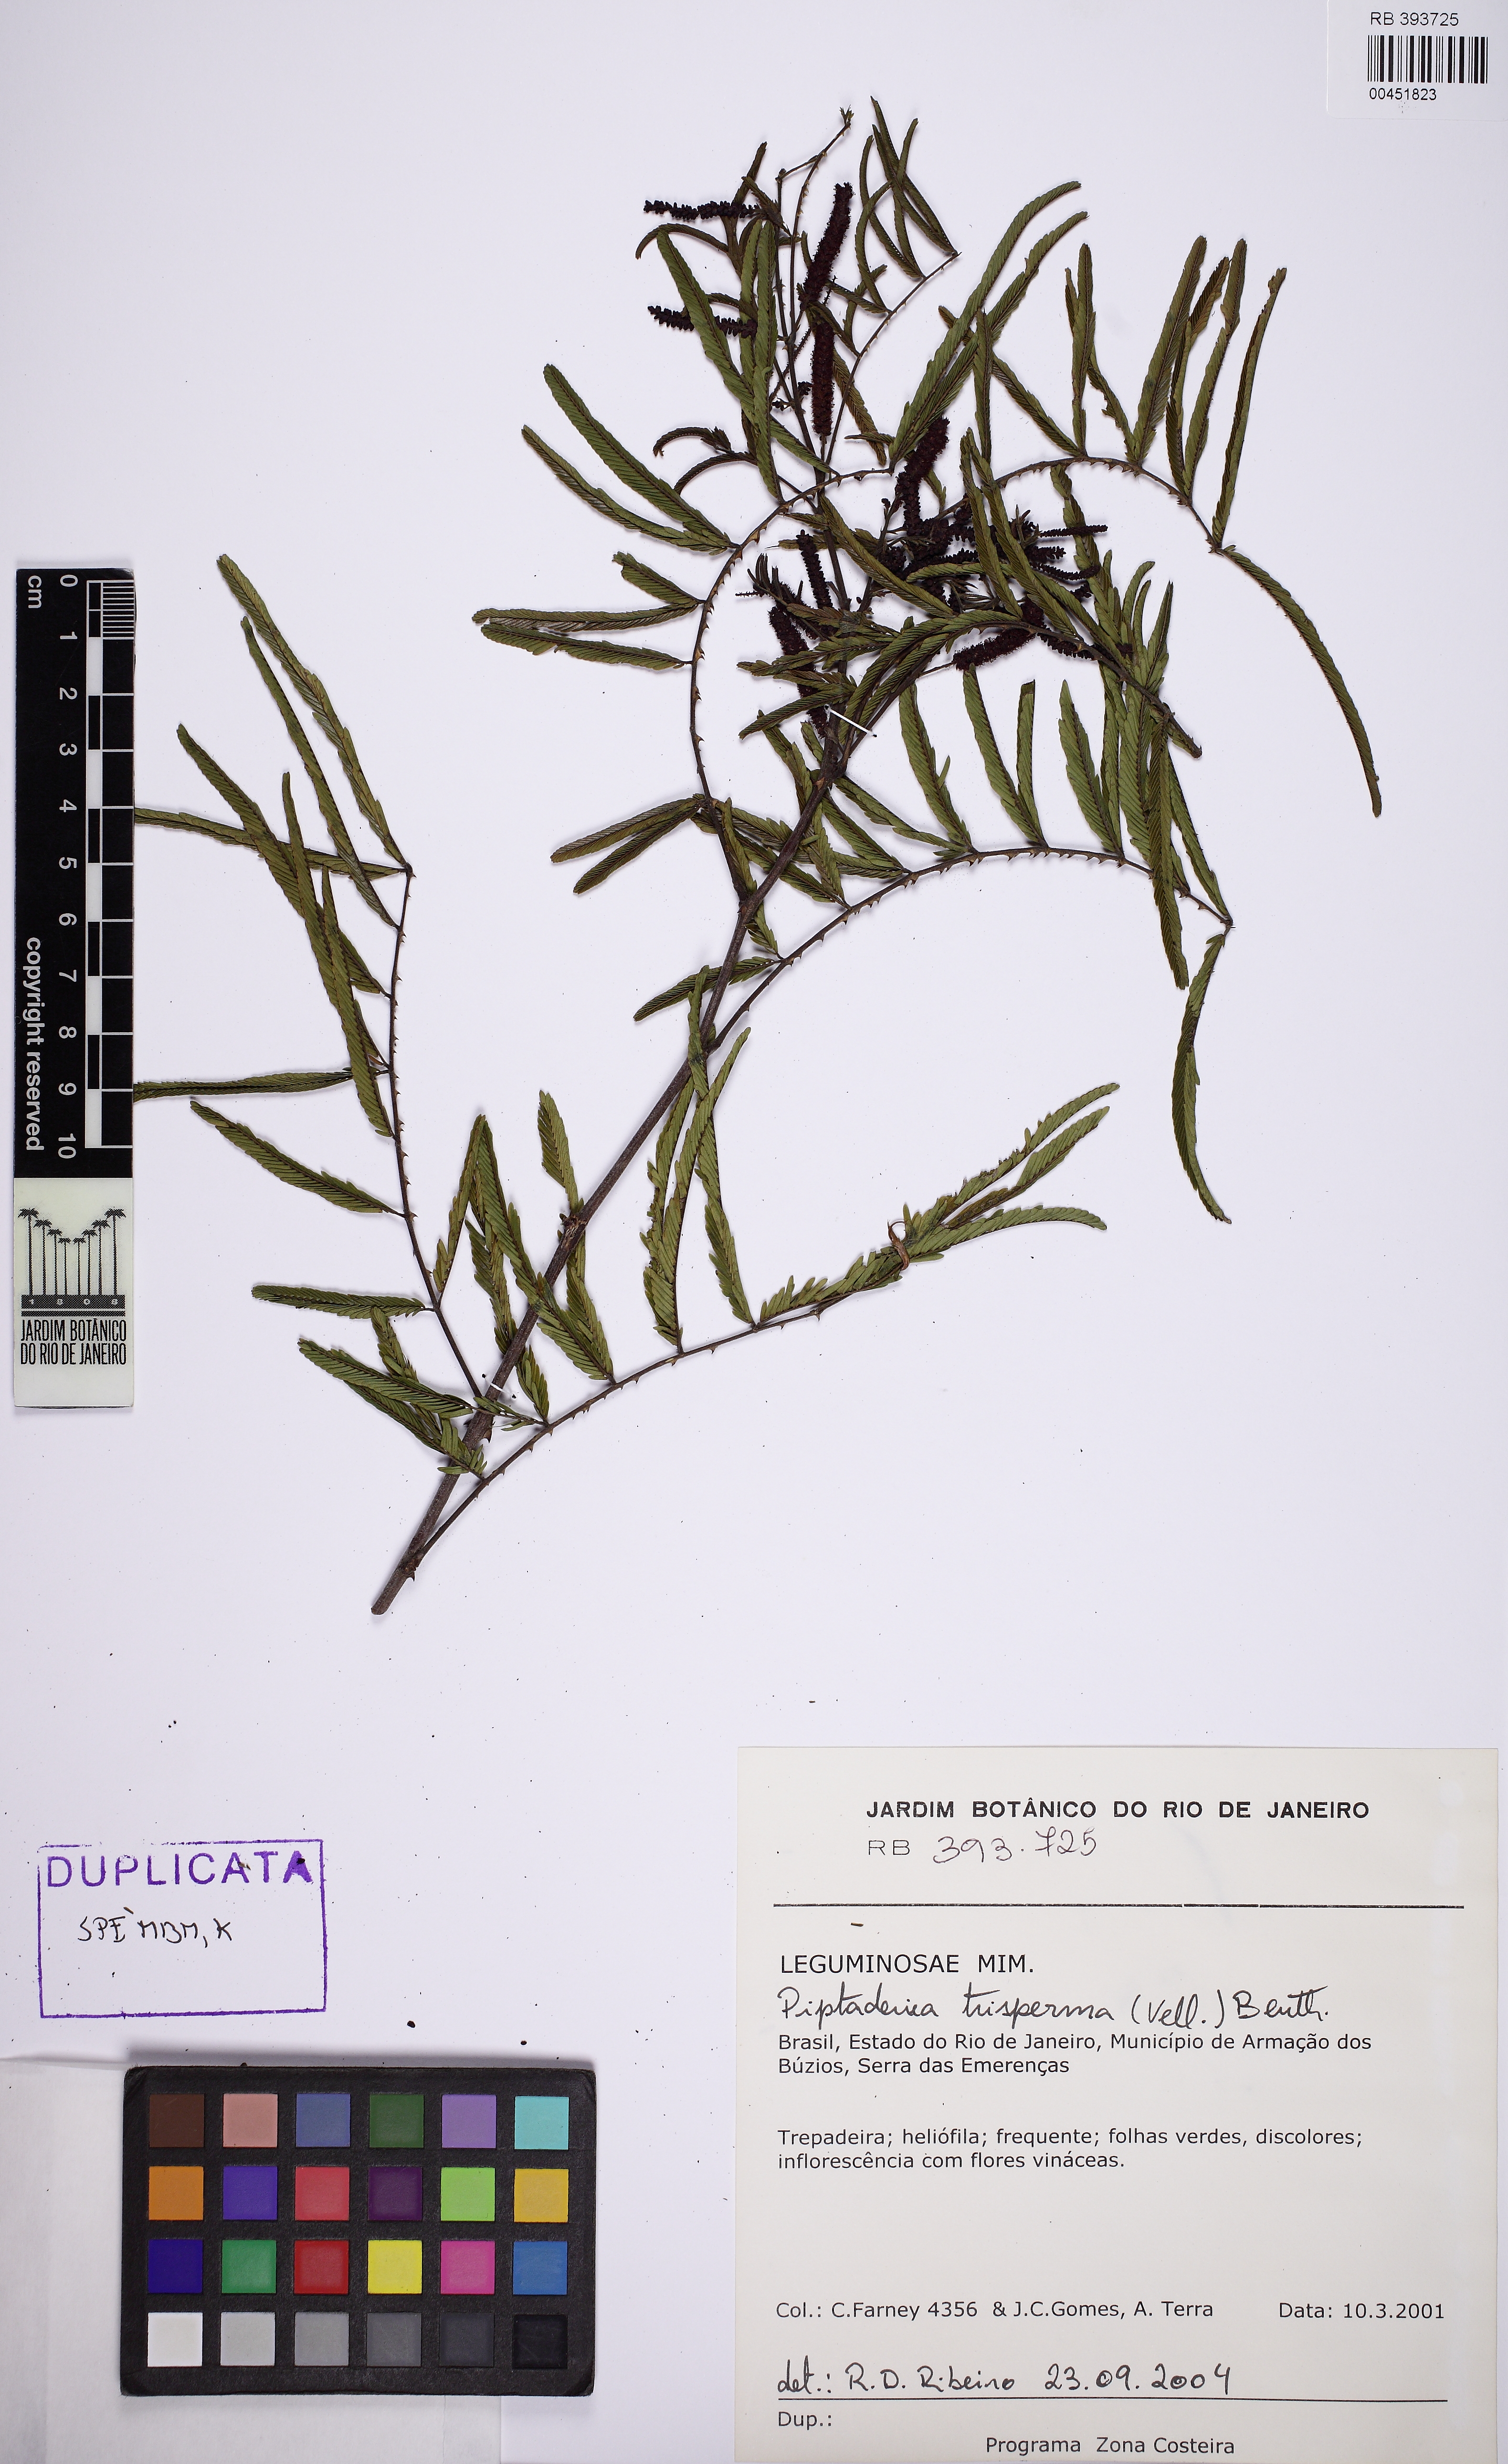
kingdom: Plantae
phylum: Tracheophyta
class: Magnoliopsida
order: Fabales
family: Fabaceae
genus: Piptadenia
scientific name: Piptadenia trisperma
